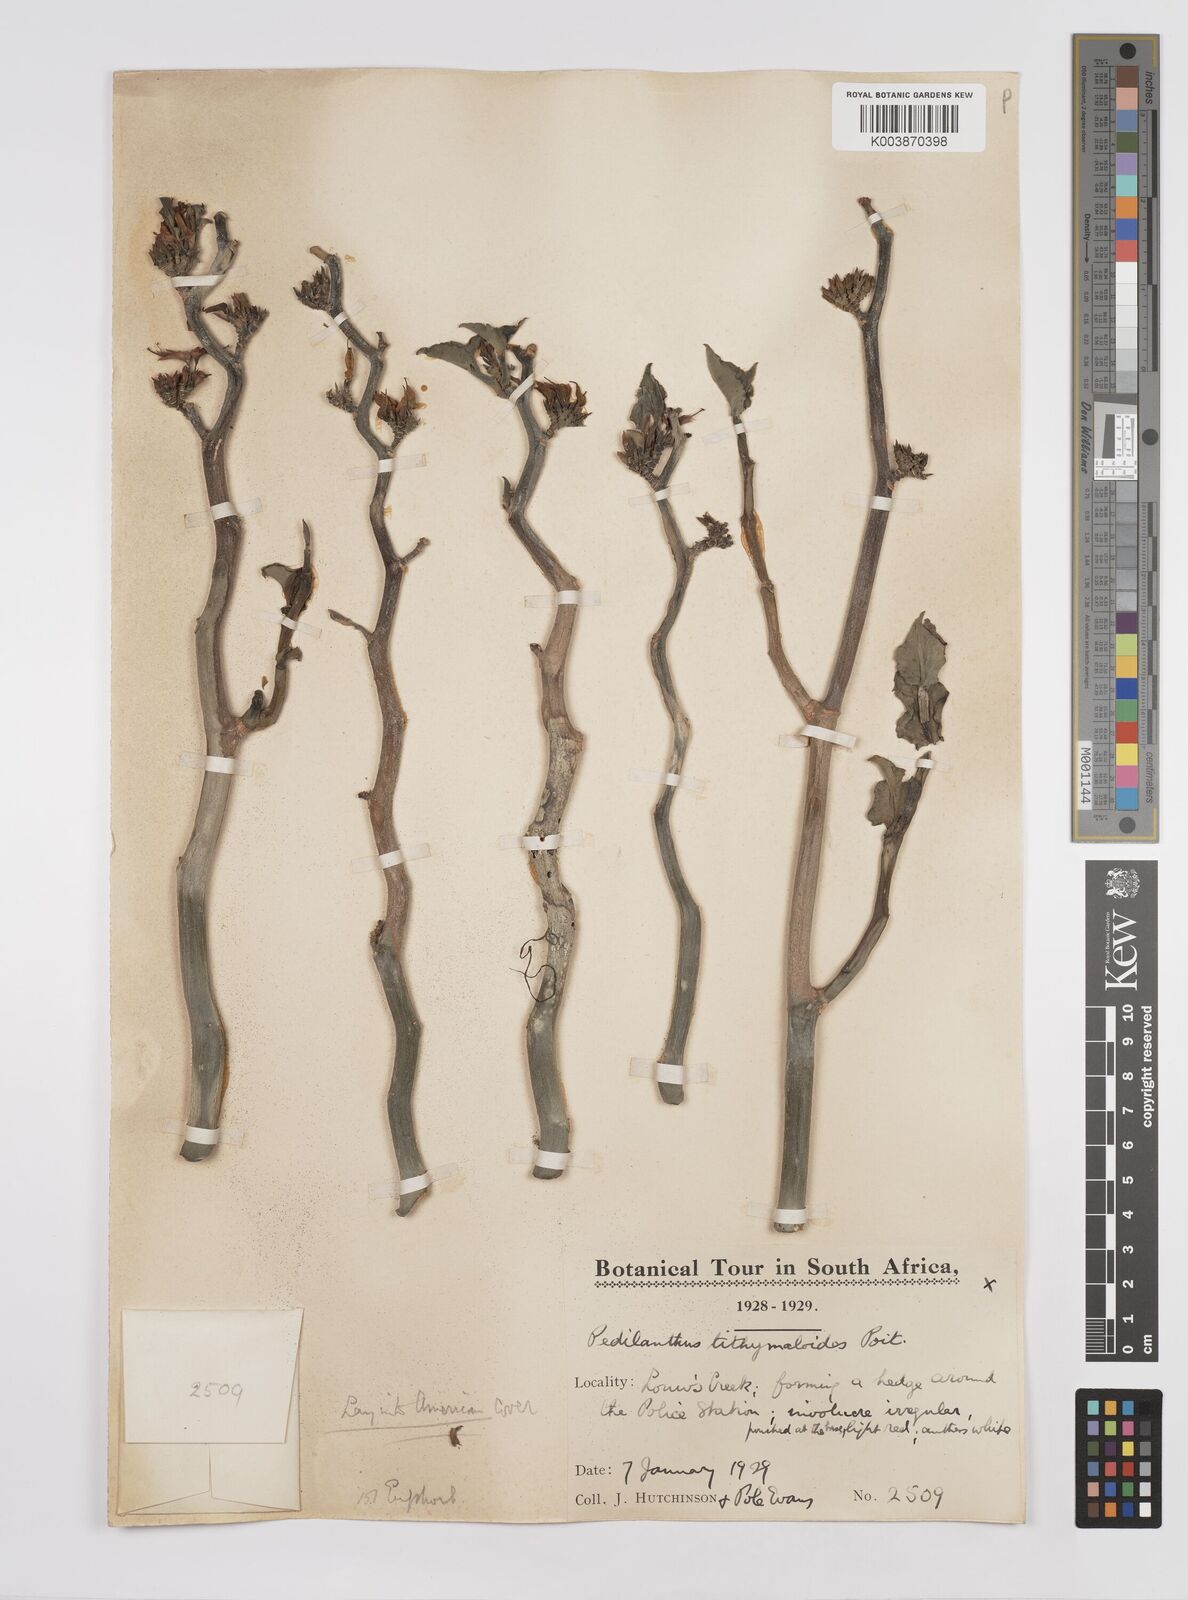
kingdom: Plantae
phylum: Tracheophyta
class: Magnoliopsida
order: Malpighiales
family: Euphorbiaceae
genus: Euphorbia
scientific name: Euphorbia tithymaloides
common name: Slipperplant
